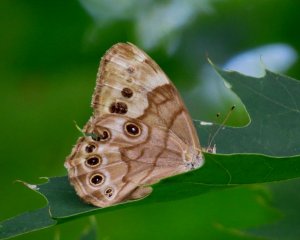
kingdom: Animalia
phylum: Arthropoda
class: Insecta
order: Lepidoptera
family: Nymphalidae
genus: Lethe
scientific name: Lethe anthedon
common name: Northern Pearly-Eye
